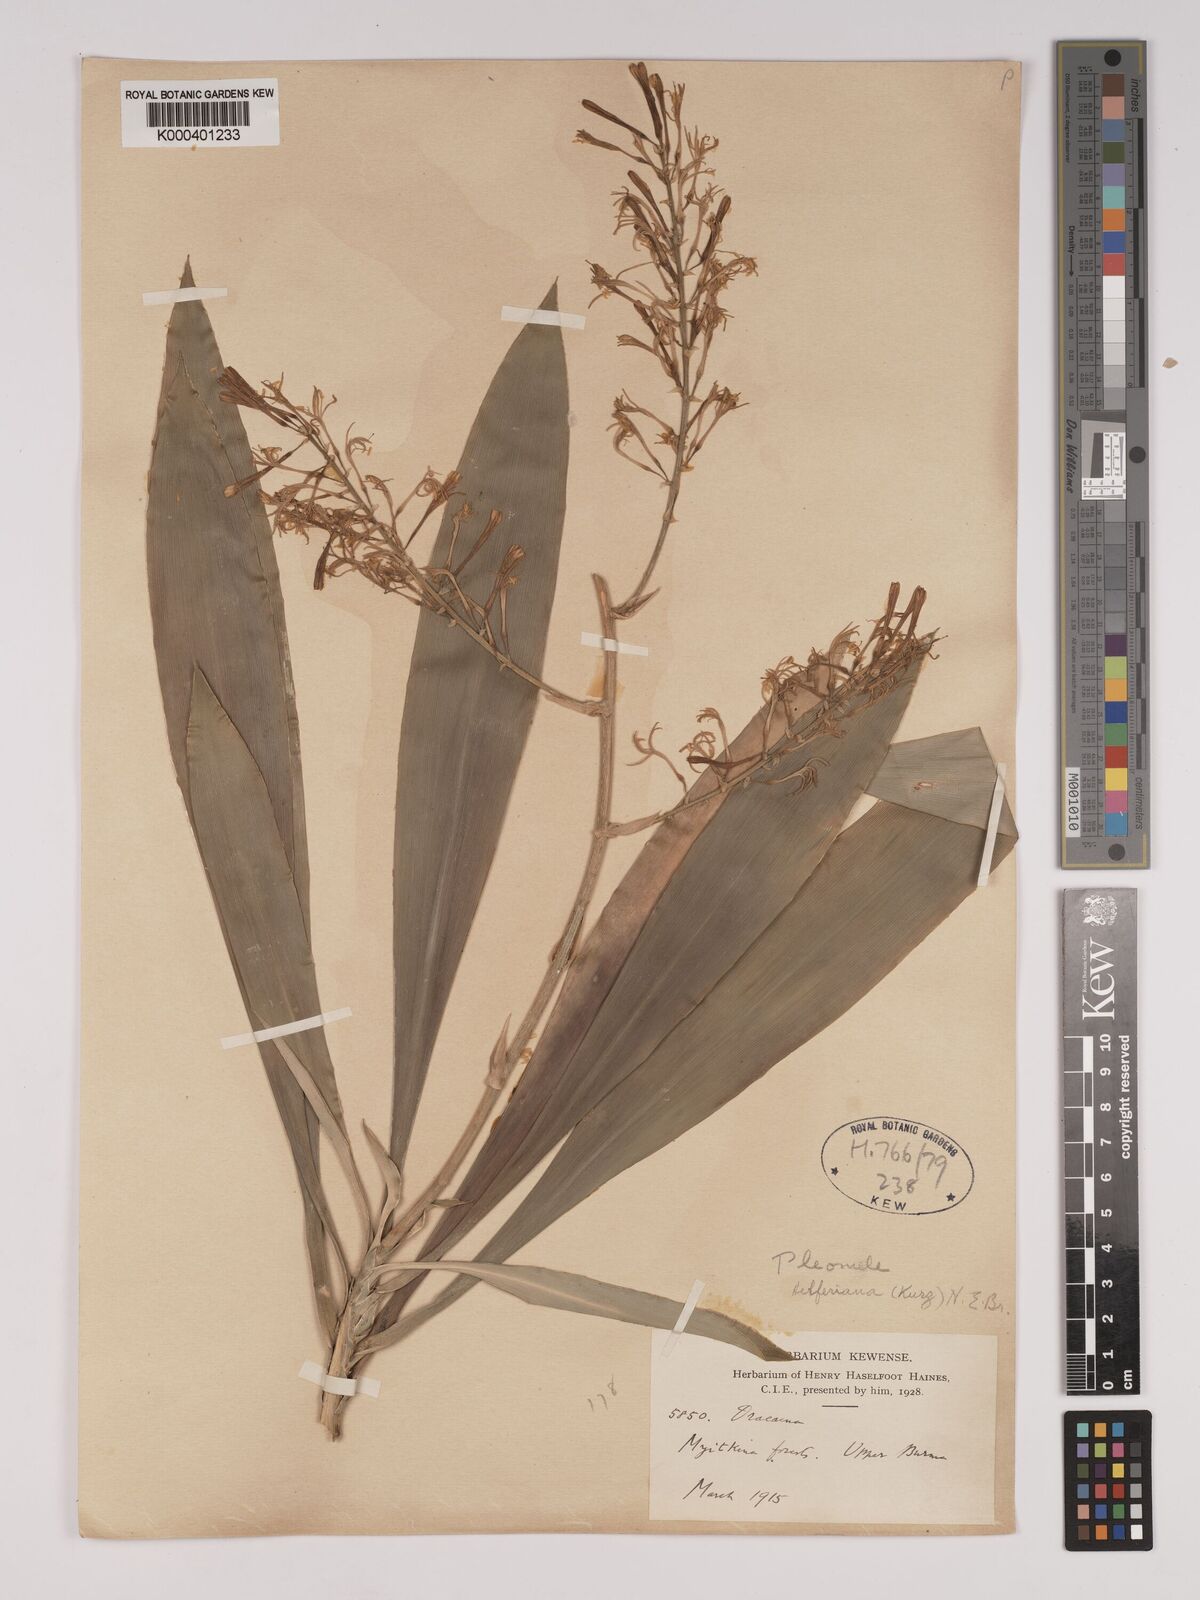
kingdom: Plantae
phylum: Tracheophyta
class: Liliopsida
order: Asparagales
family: Asparagaceae
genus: Dracaena
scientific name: Dracaena griffithii
